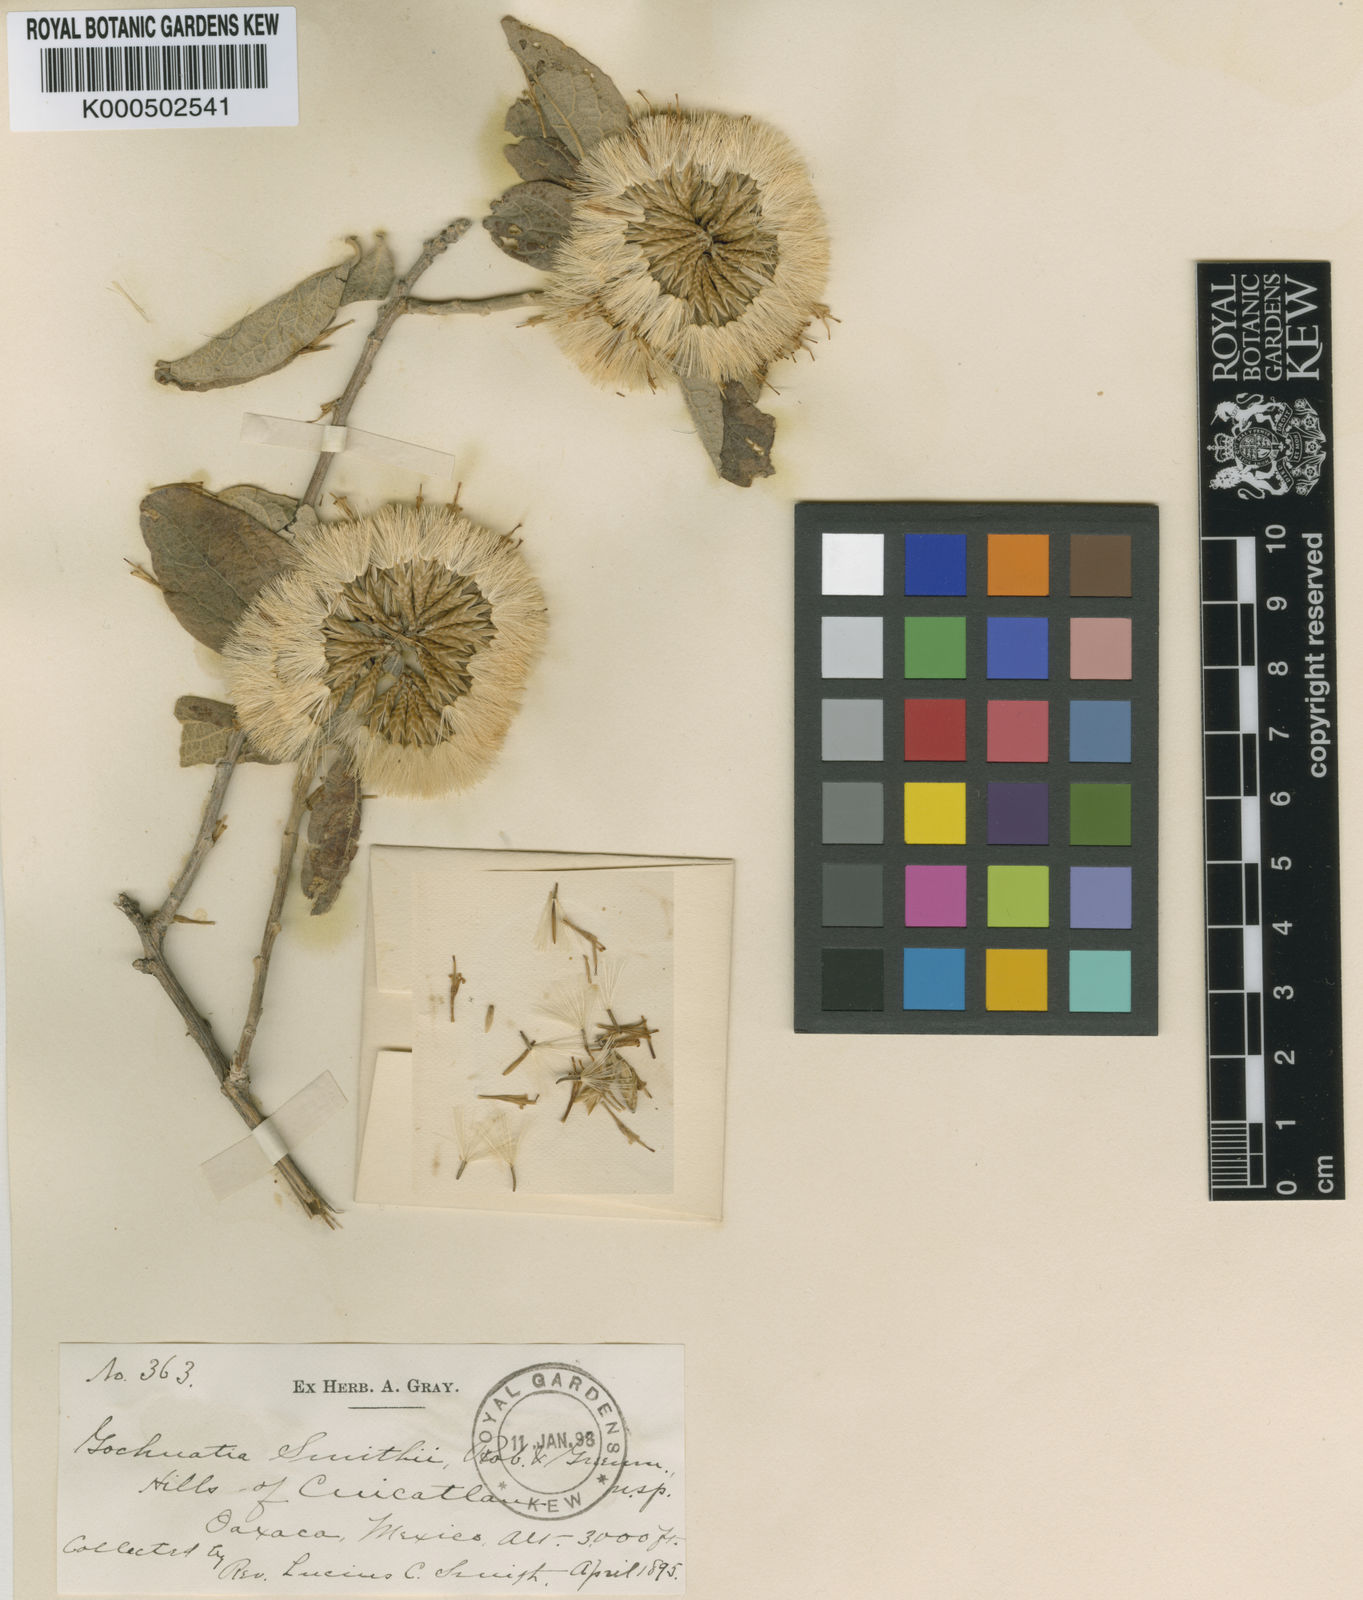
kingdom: Plantae
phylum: Tracheophyta
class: Magnoliopsida
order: Asterales
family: Asteraceae
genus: Nahuatlea
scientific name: Nahuatlea smithii
